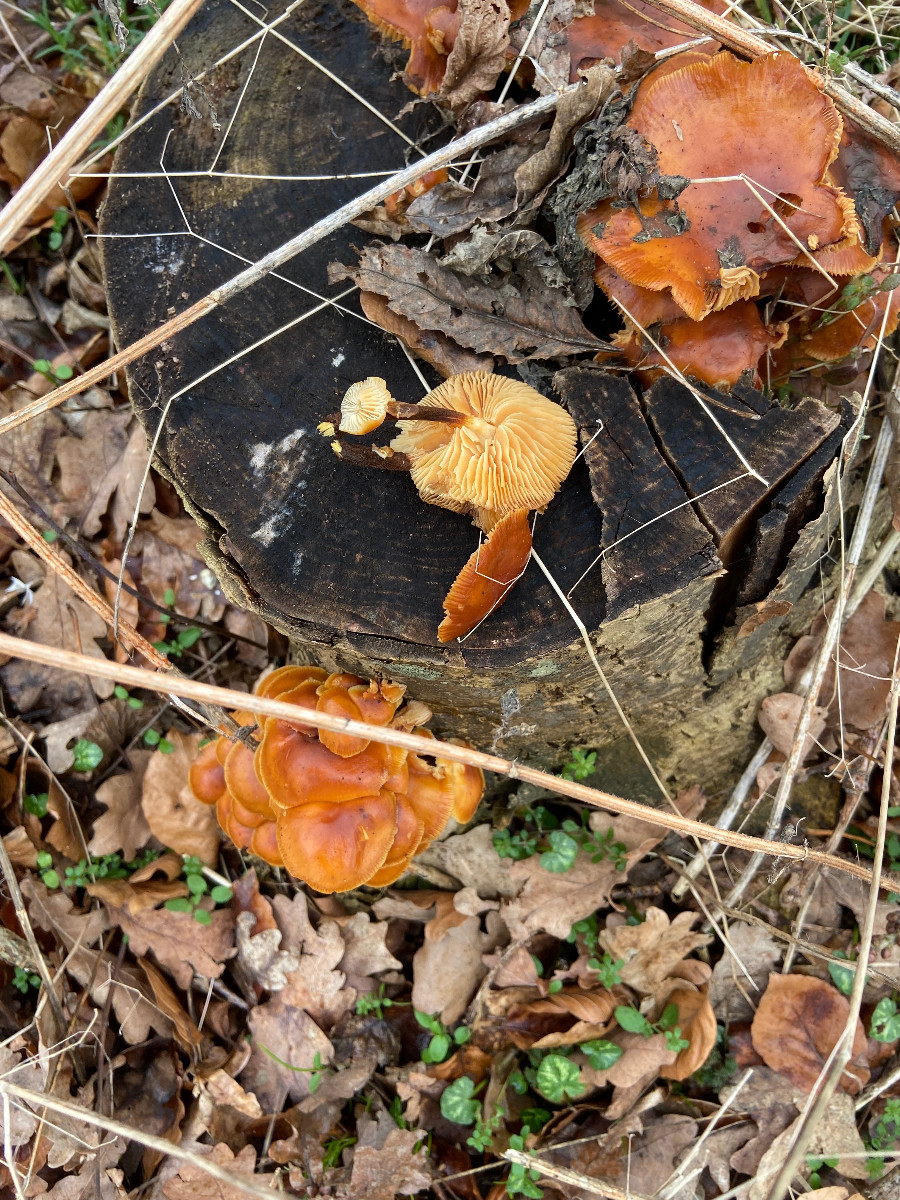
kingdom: Fungi
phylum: Basidiomycota
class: Agaricomycetes
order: Agaricales
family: Physalacriaceae
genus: Flammulina
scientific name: Flammulina velutipes
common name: gul fløjlsfod
